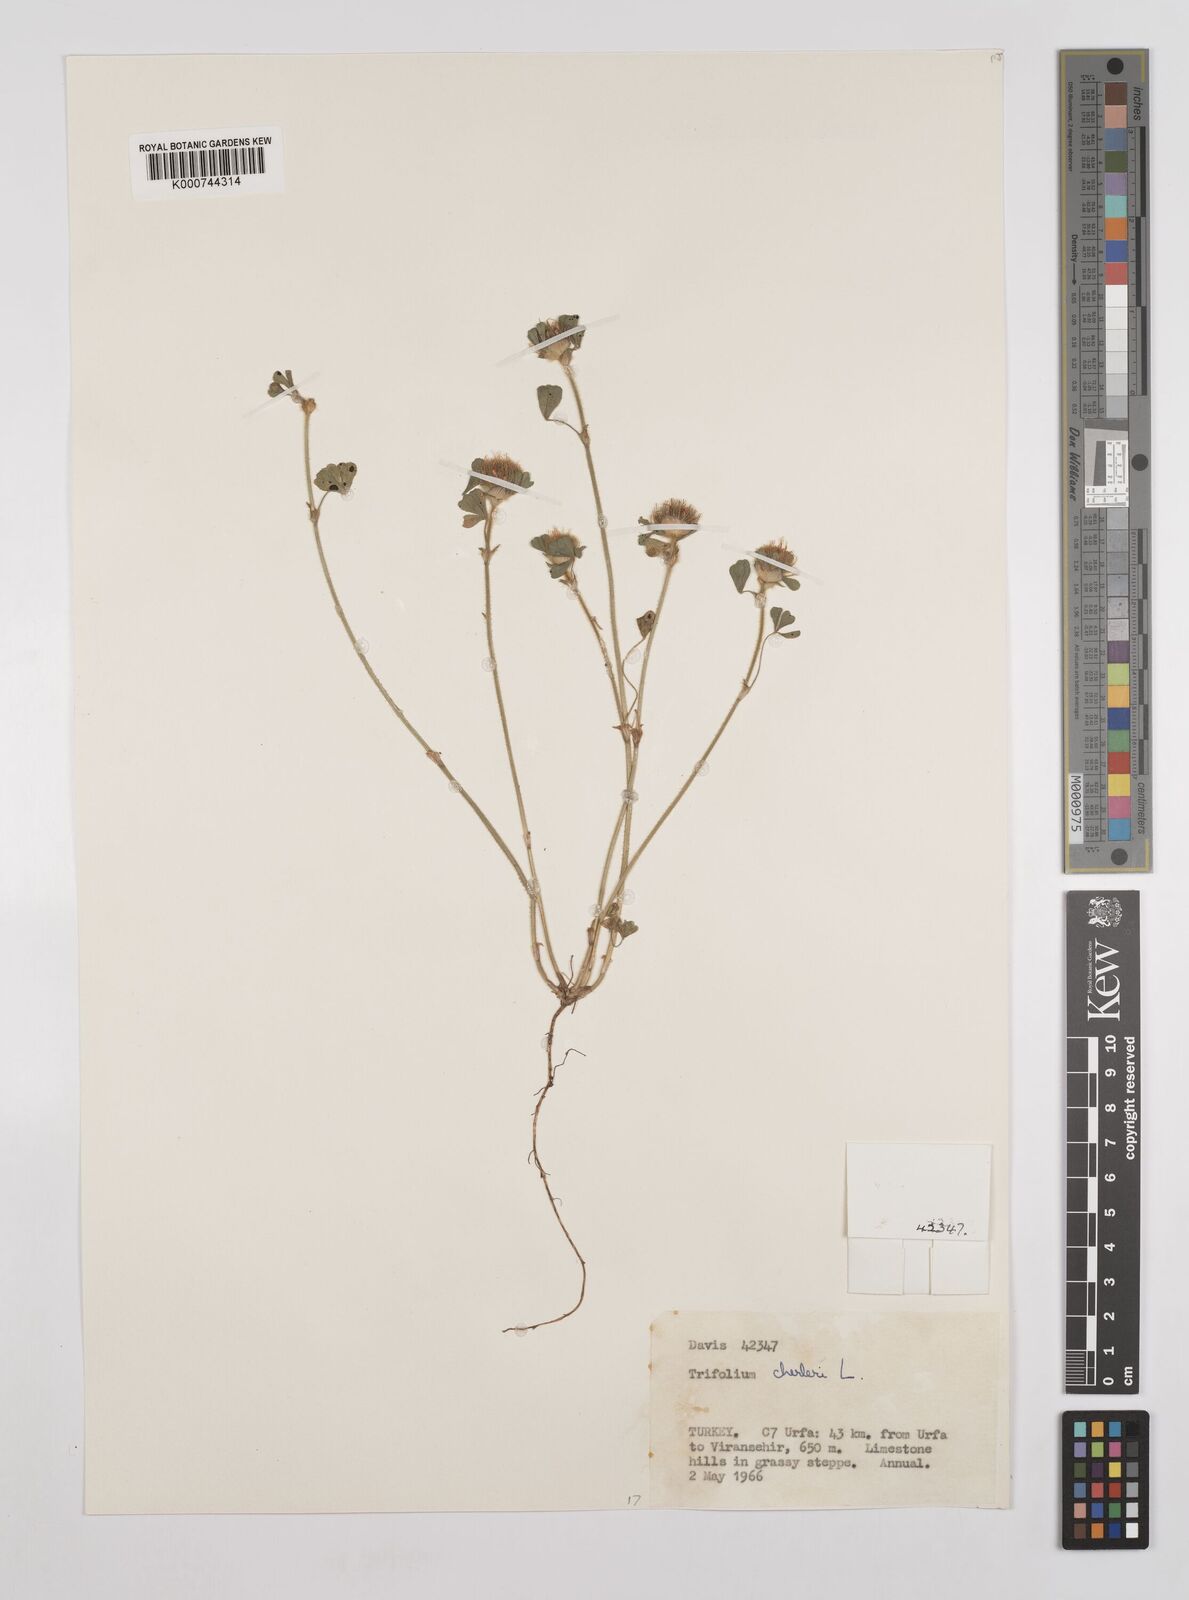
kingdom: Plantae
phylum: Tracheophyta
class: Magnoliopsida
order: Fabales
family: Fabaceae
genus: Trifolium
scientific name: Trifolium cherleri
